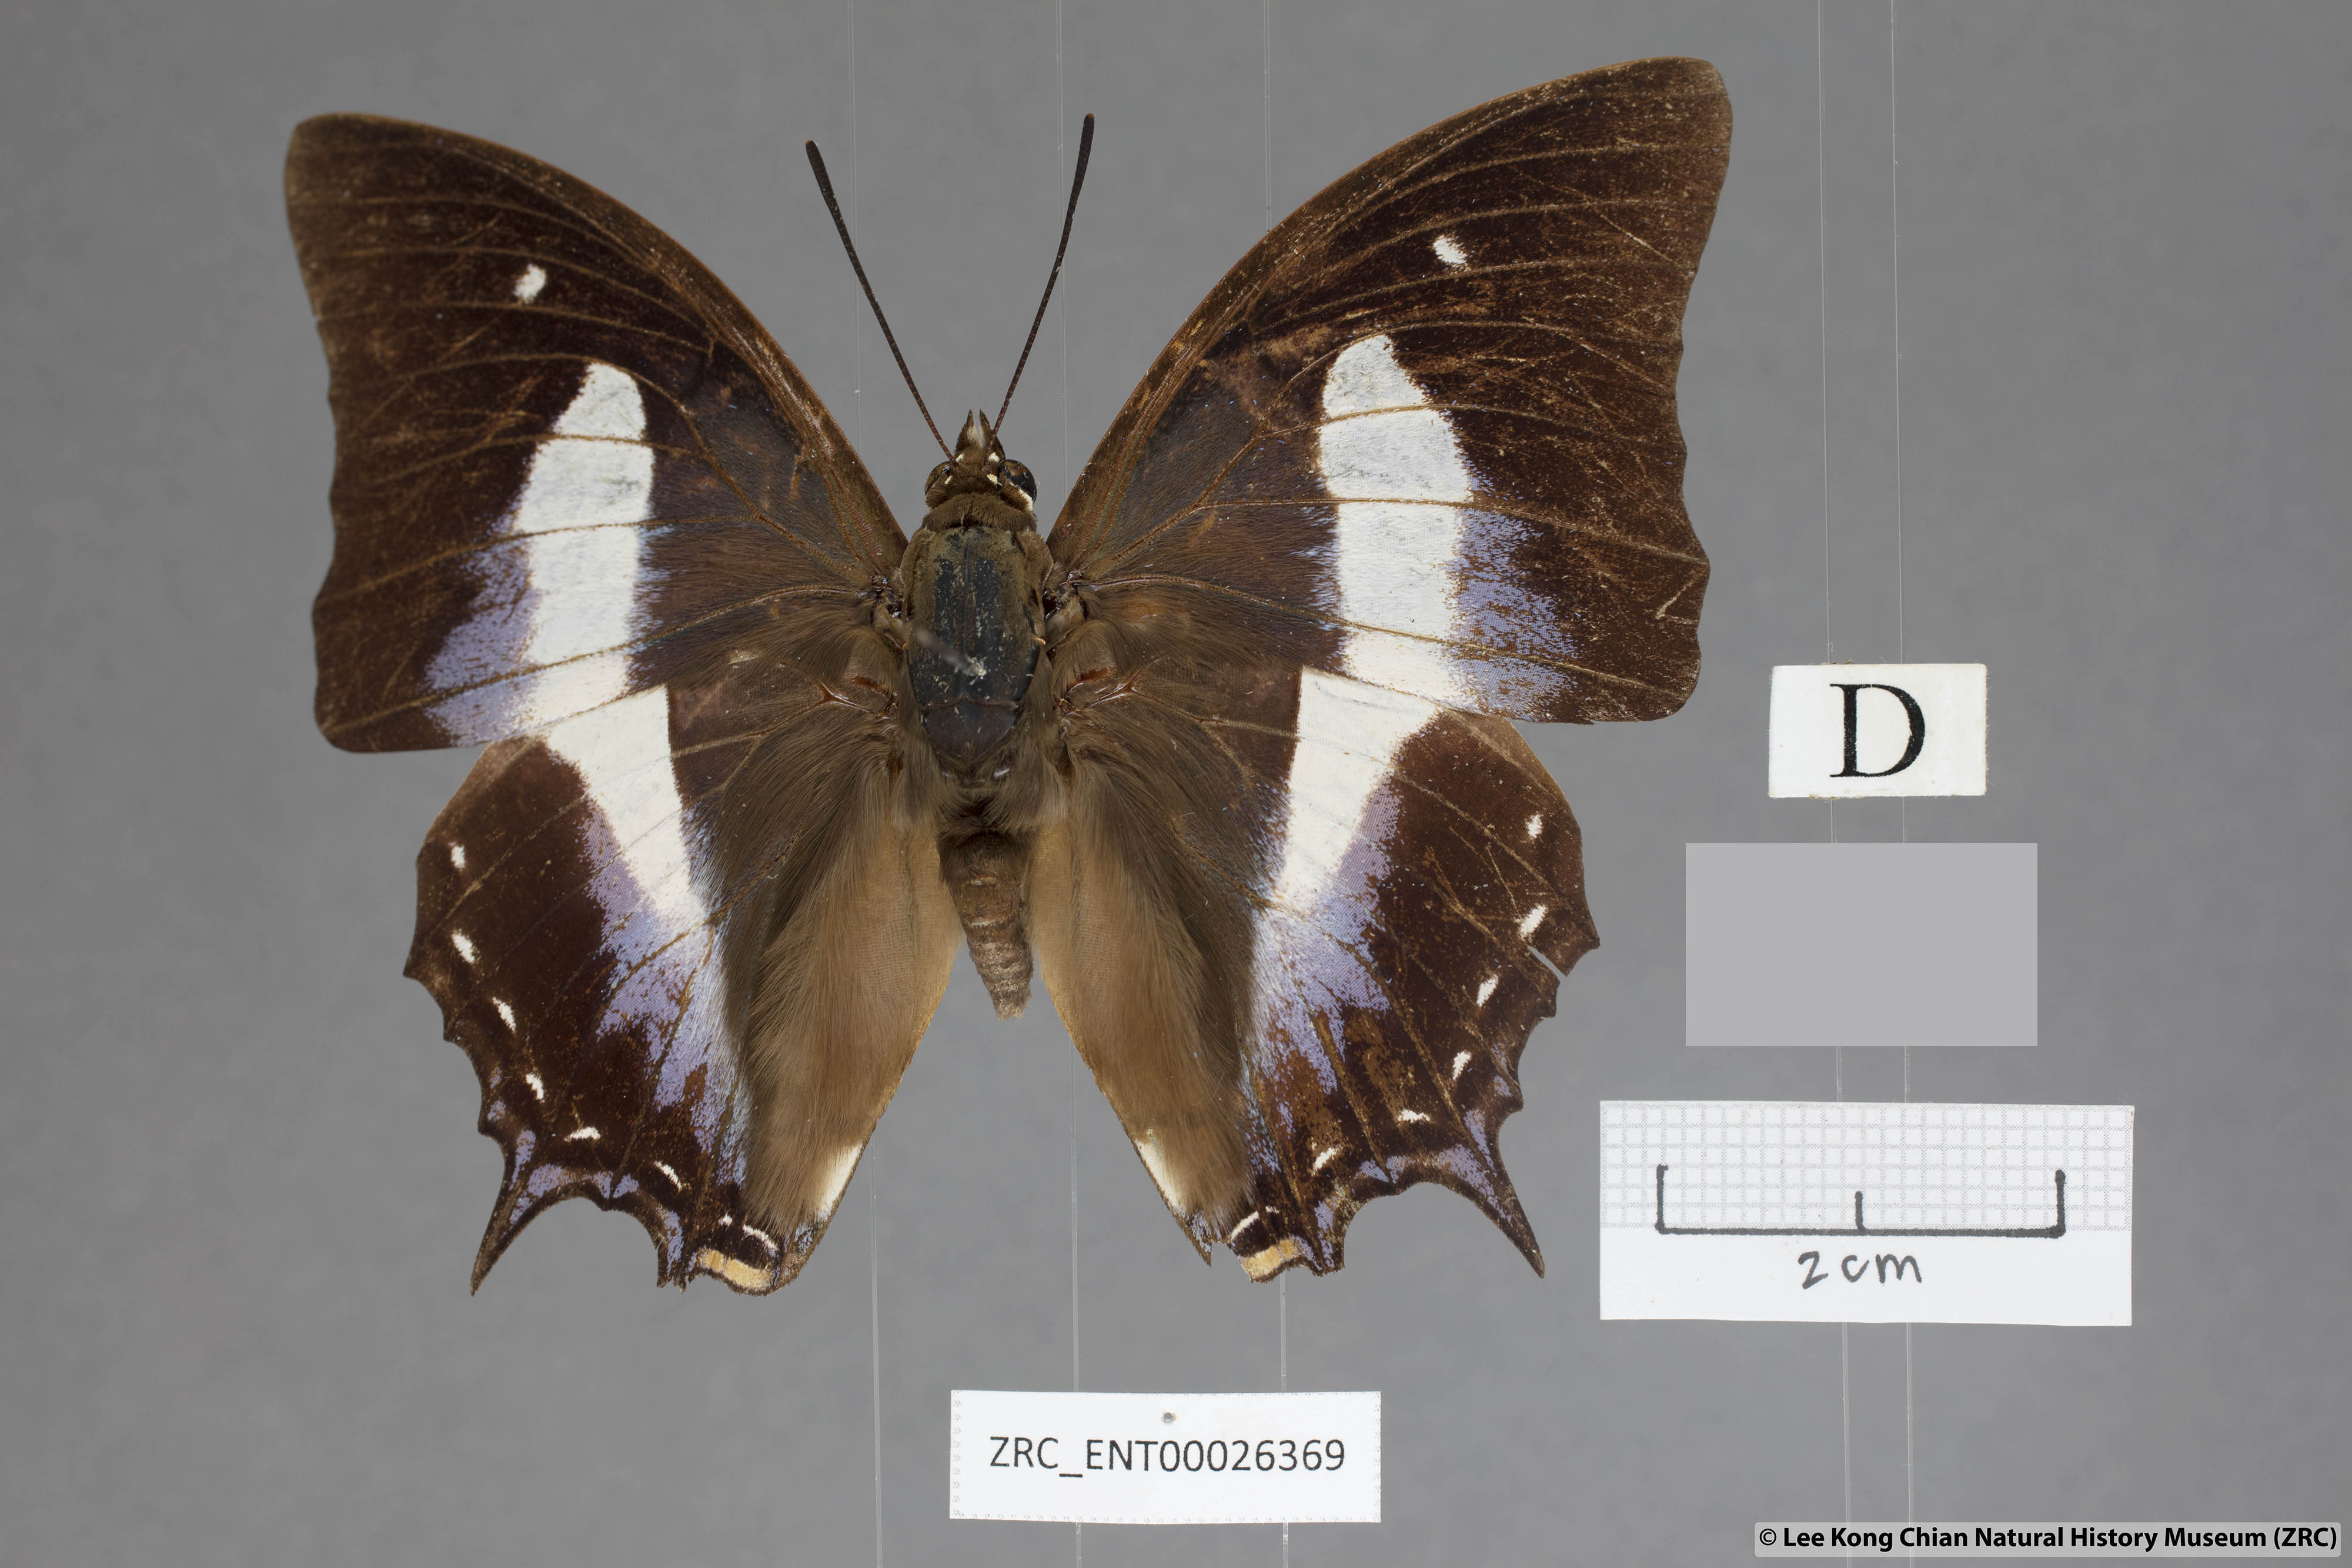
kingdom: Animalia
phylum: Arthropoda
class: Insecta
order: Lepidoptera
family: Nymphalidae
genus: Polyura
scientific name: Polyura schreiberi
